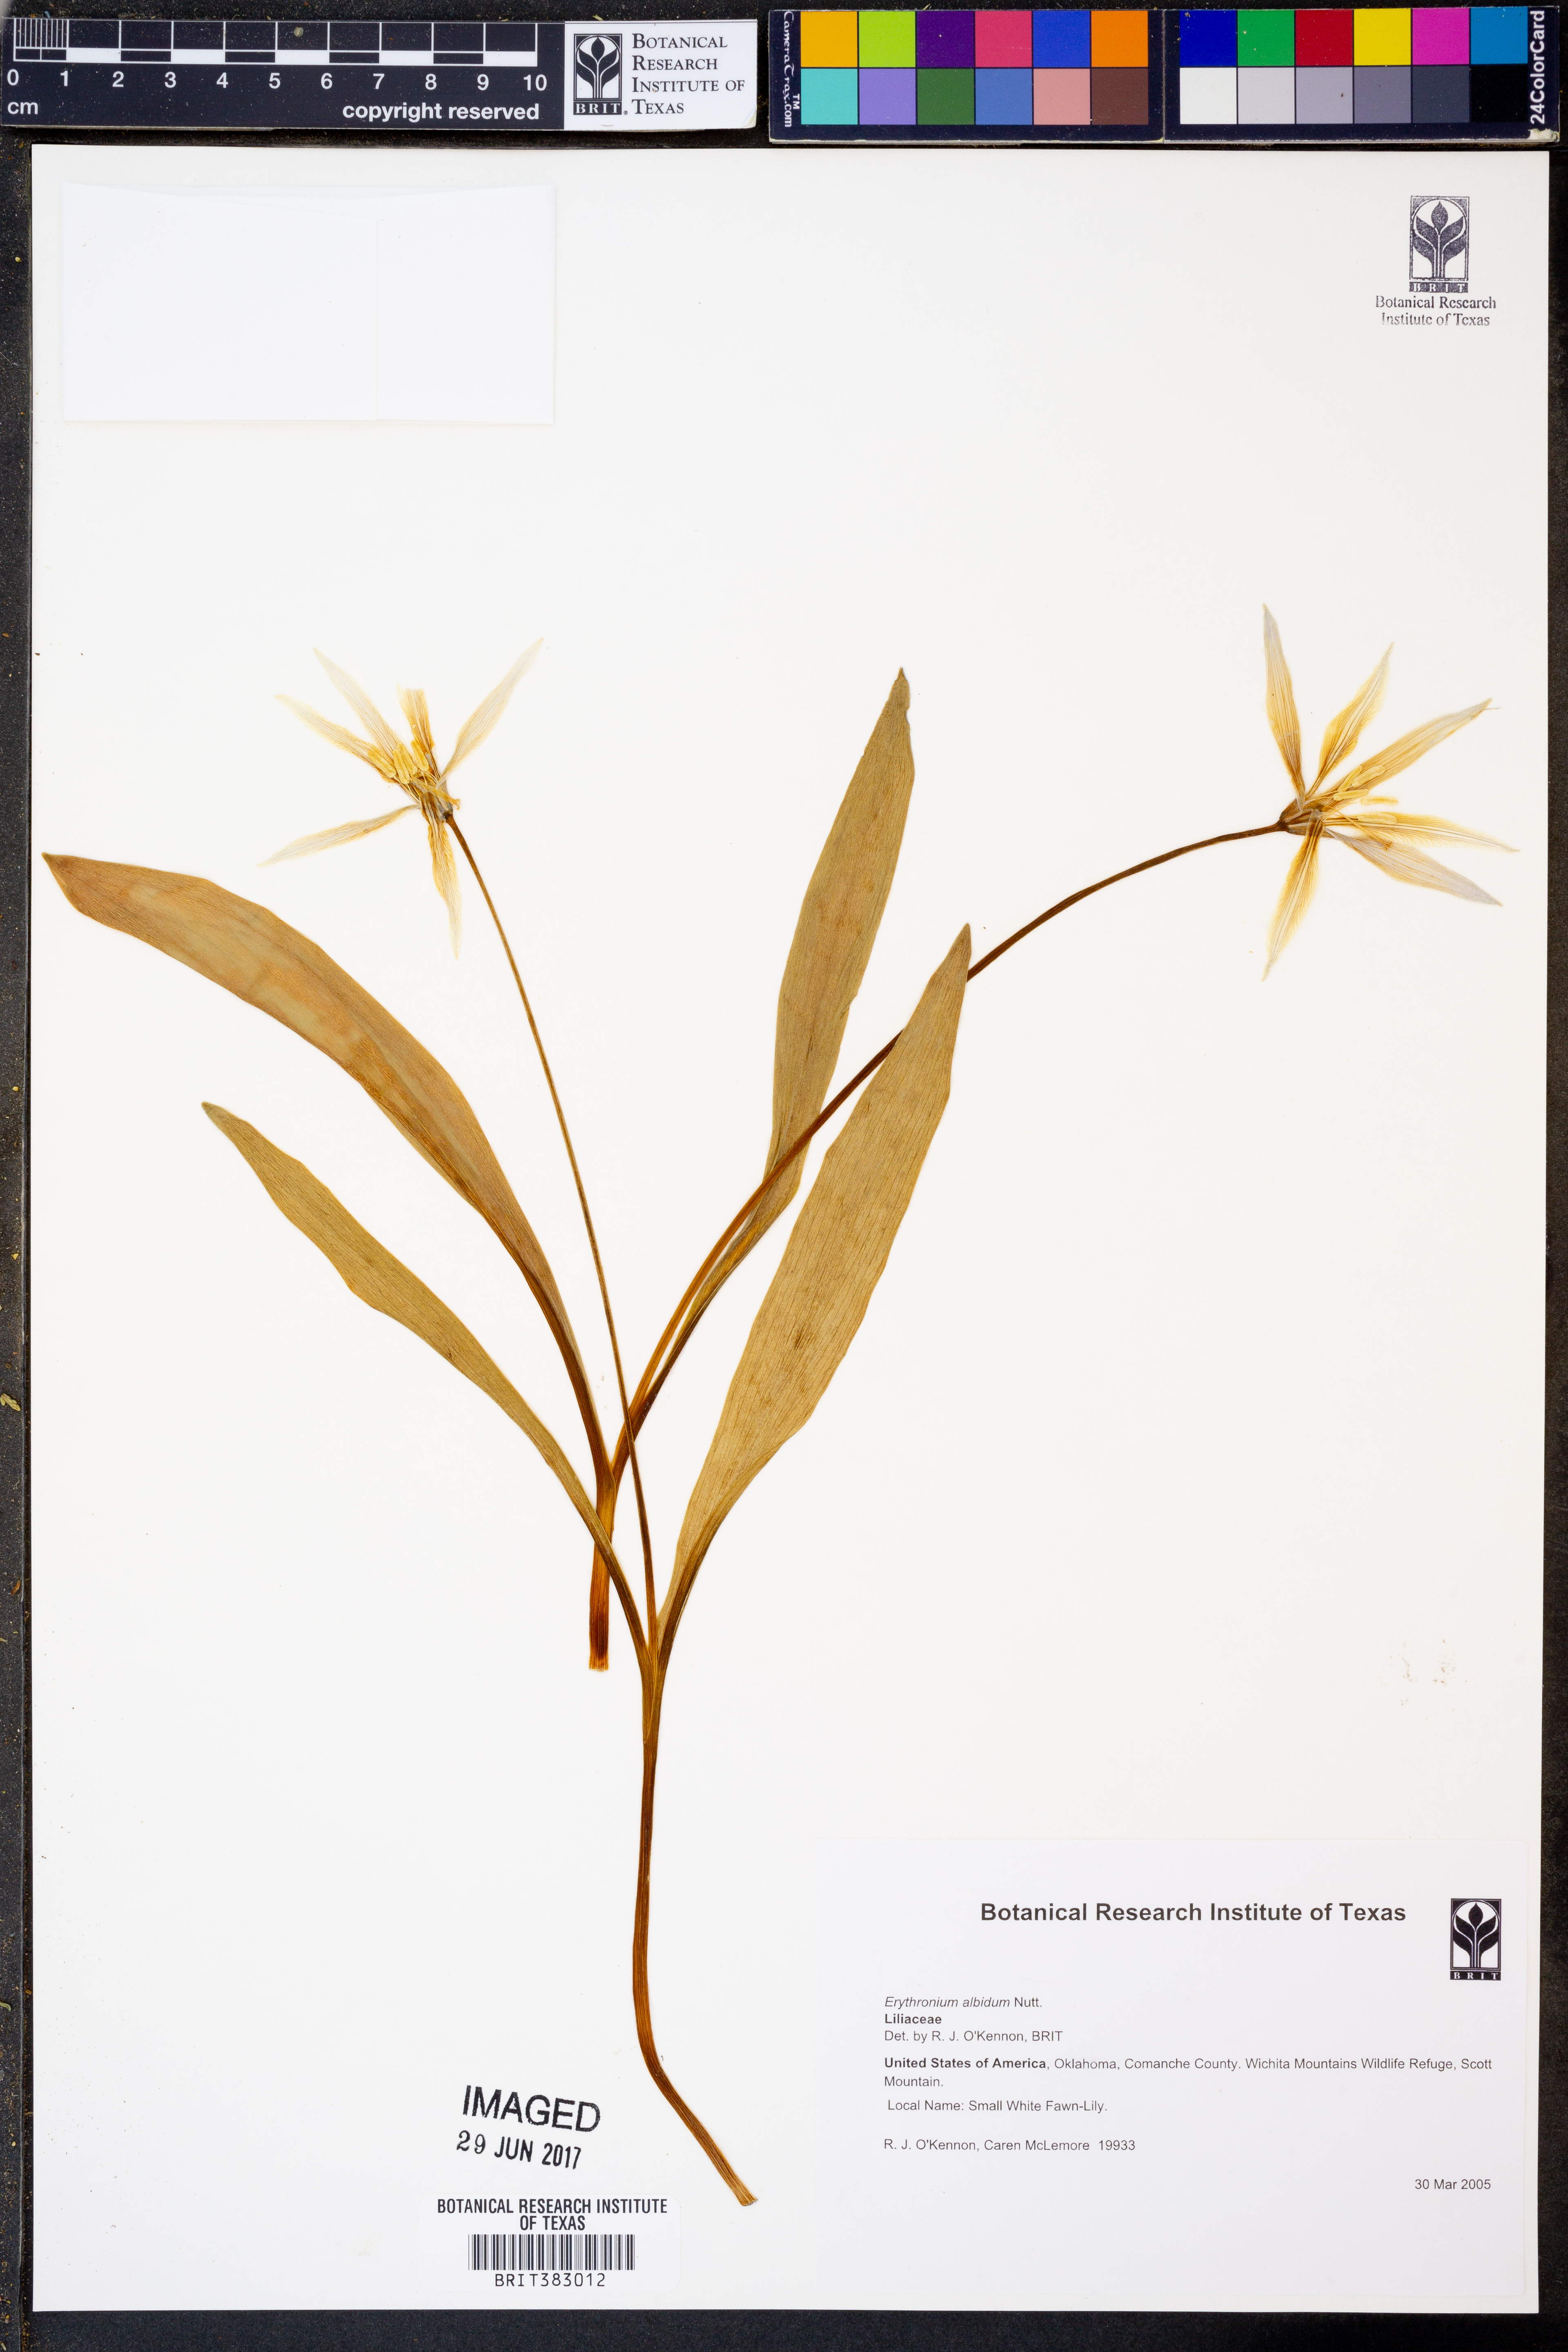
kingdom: Plantae
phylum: Tracheophyta
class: Liliopsida
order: Liliales
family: Liliaceae
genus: Erythronium
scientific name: Erythronium albidum
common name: White trout-lily
